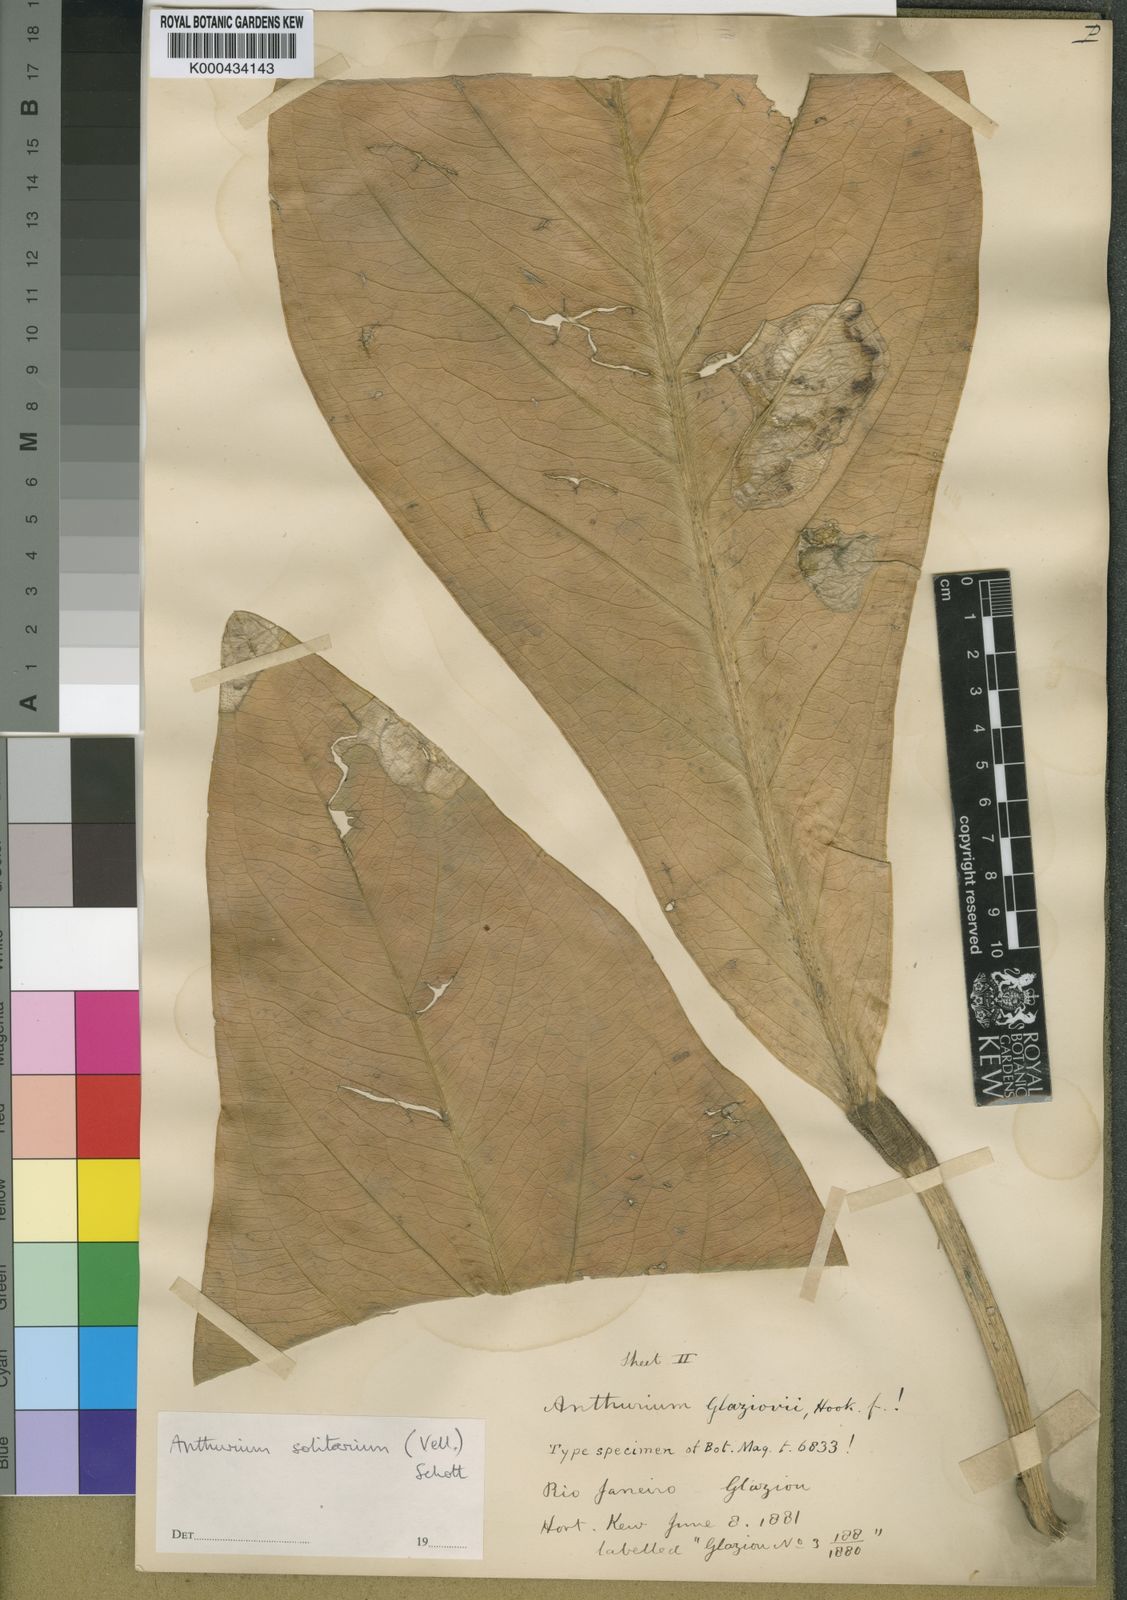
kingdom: Plantae
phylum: Tracheophyta
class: Liliopsida
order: Alismatales
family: Araceae
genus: Anthurium
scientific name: Anthurium solitarium
